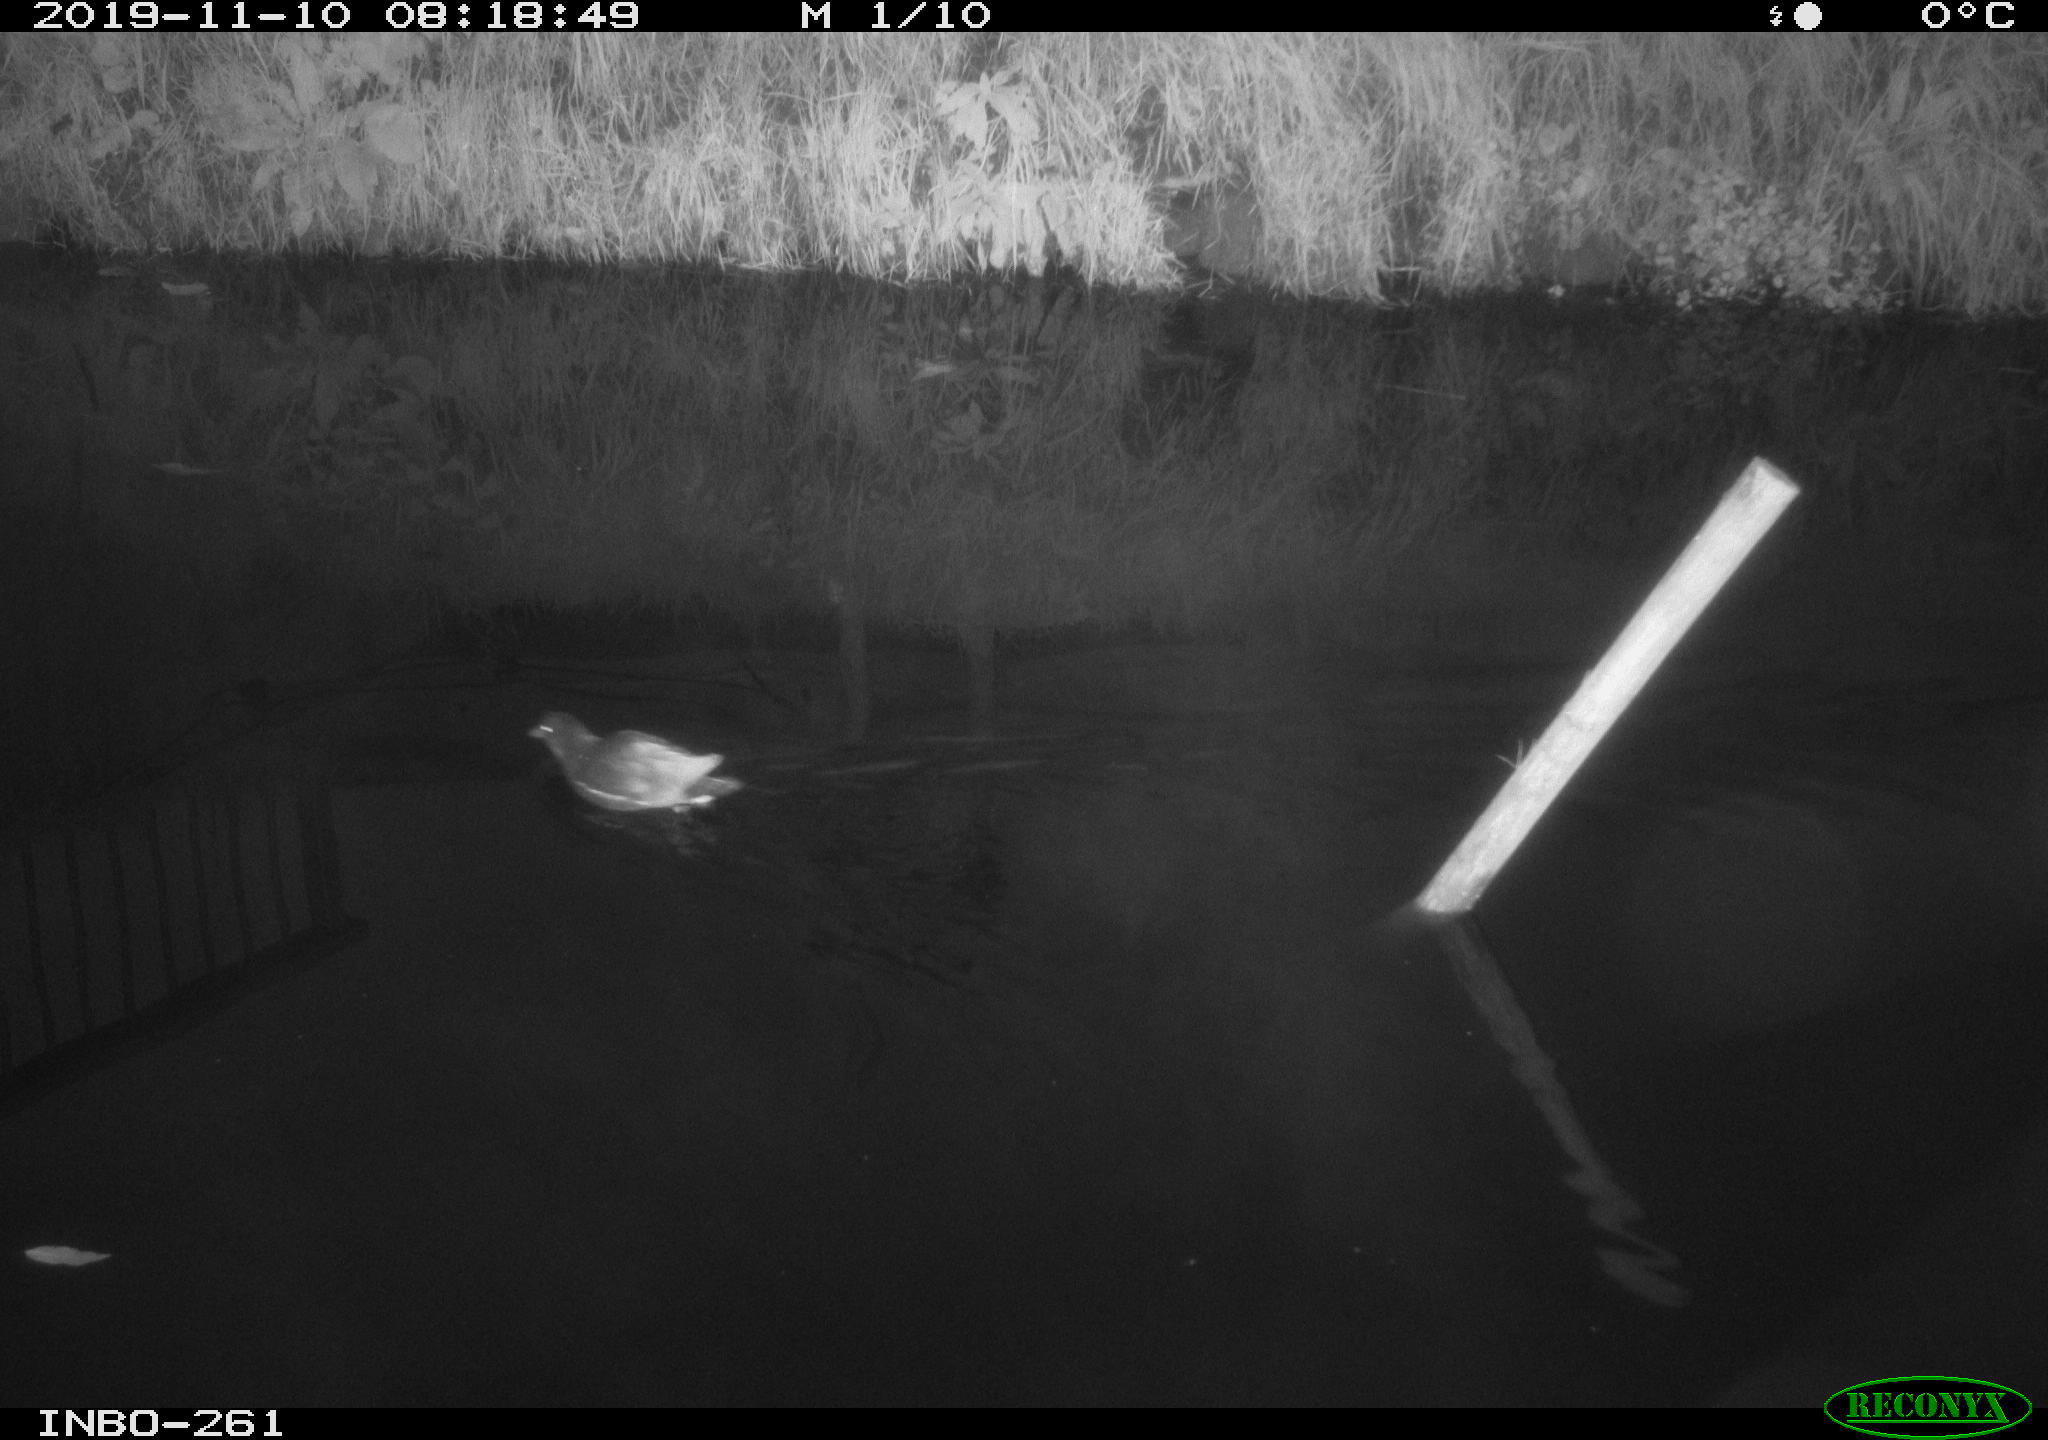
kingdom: Animalia
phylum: Chordata
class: Aves
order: Gruiformes
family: Rallidae
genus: Gallinula
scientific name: Gallinula chloropus
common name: Common moorhen
